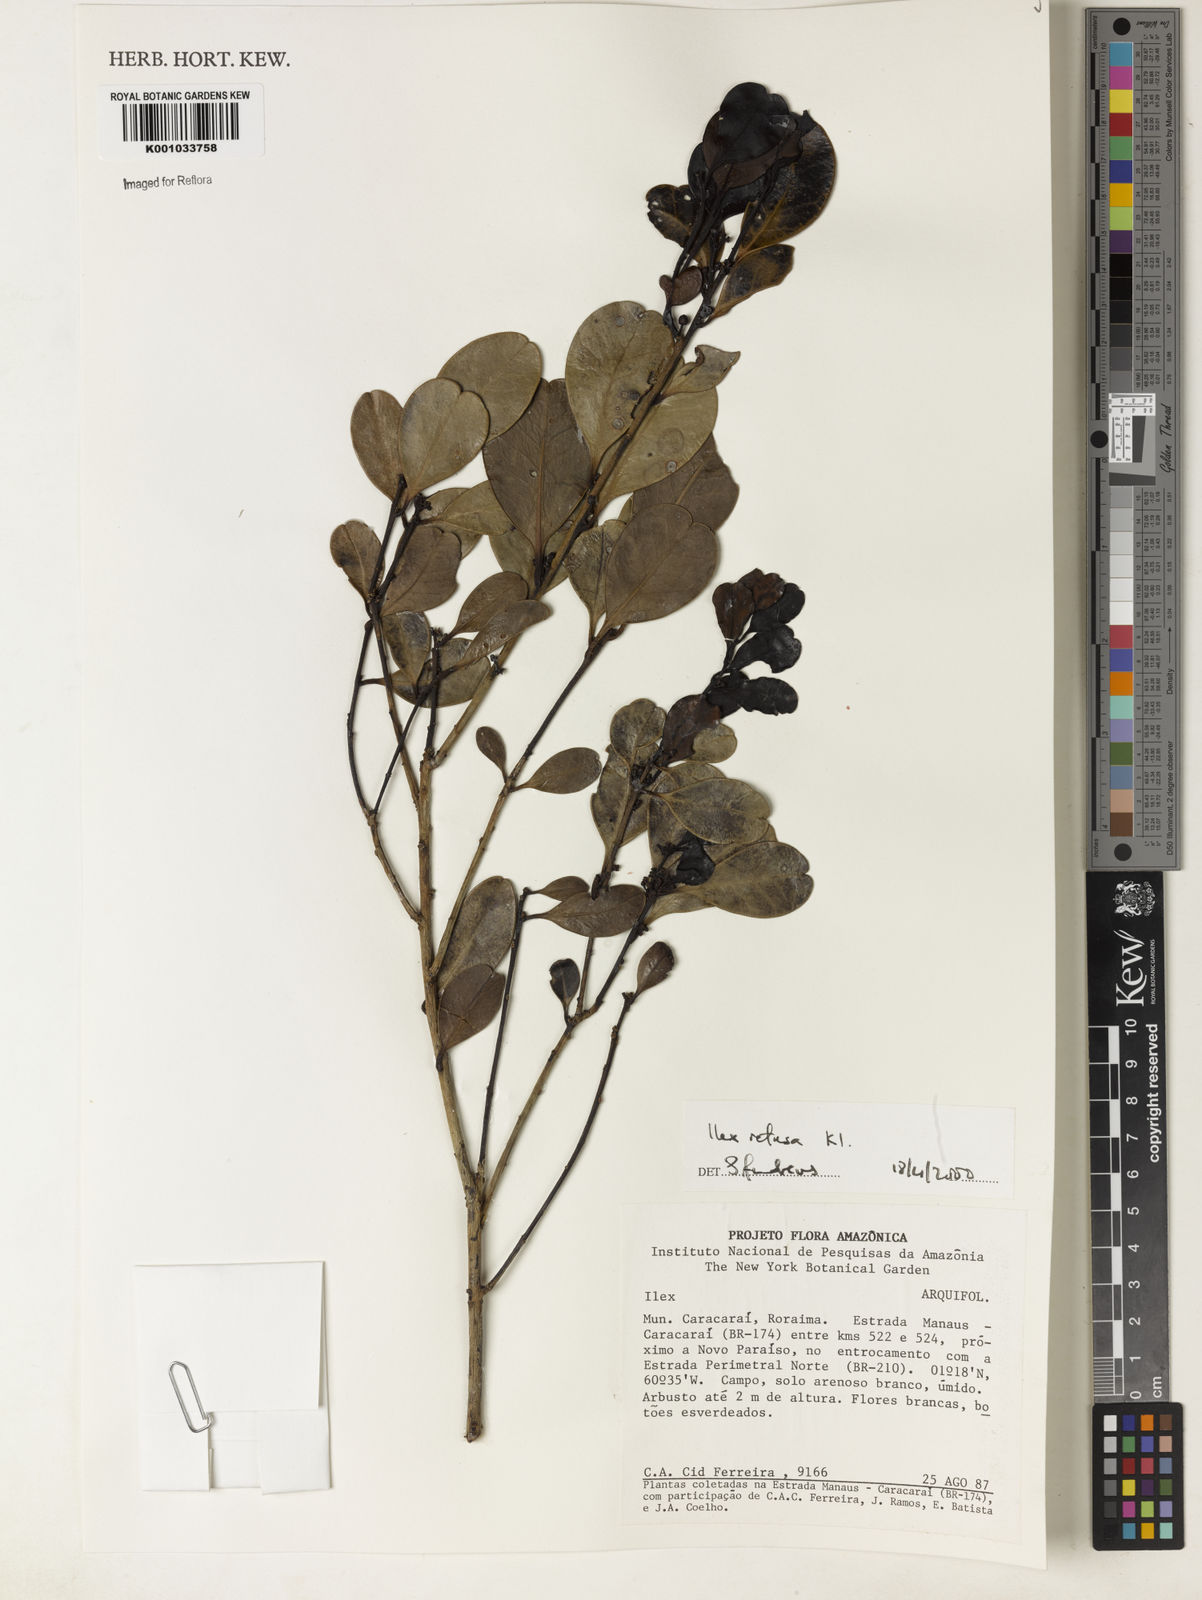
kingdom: Plantae
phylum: Tracheophyta
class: Magnoliopsida
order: Aquifoliales
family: Aquifoliaceae
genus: Ilex
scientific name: Ilex
